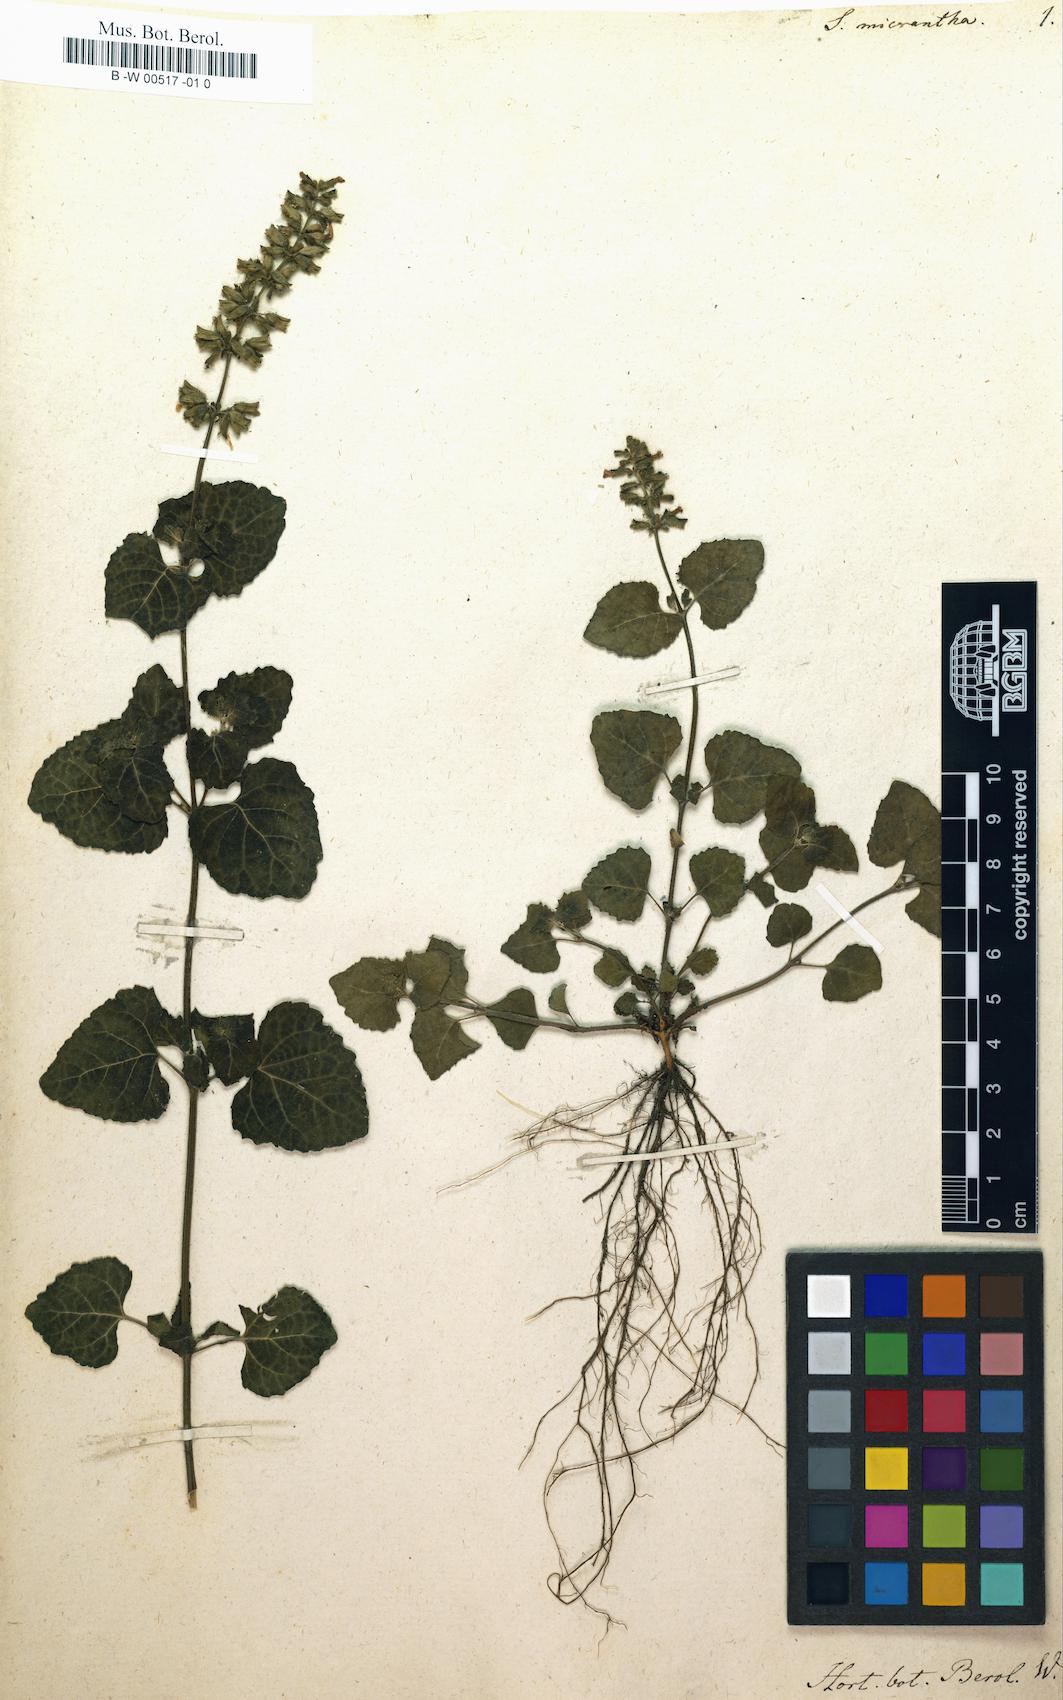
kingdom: Plantae
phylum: Tracheophyta
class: Magnoliopsida
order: Lamiales
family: Lamiaceae
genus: Salvia
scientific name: Salvia micrantha
